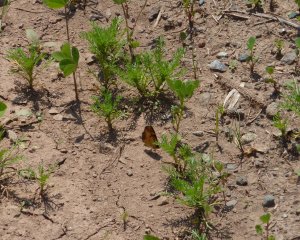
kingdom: Animalia
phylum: Arthropoda
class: Insecta
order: Lepidoptera
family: Nymphalidae
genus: Phyciodes
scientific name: Phyciodes tharos
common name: Northern Crescent
